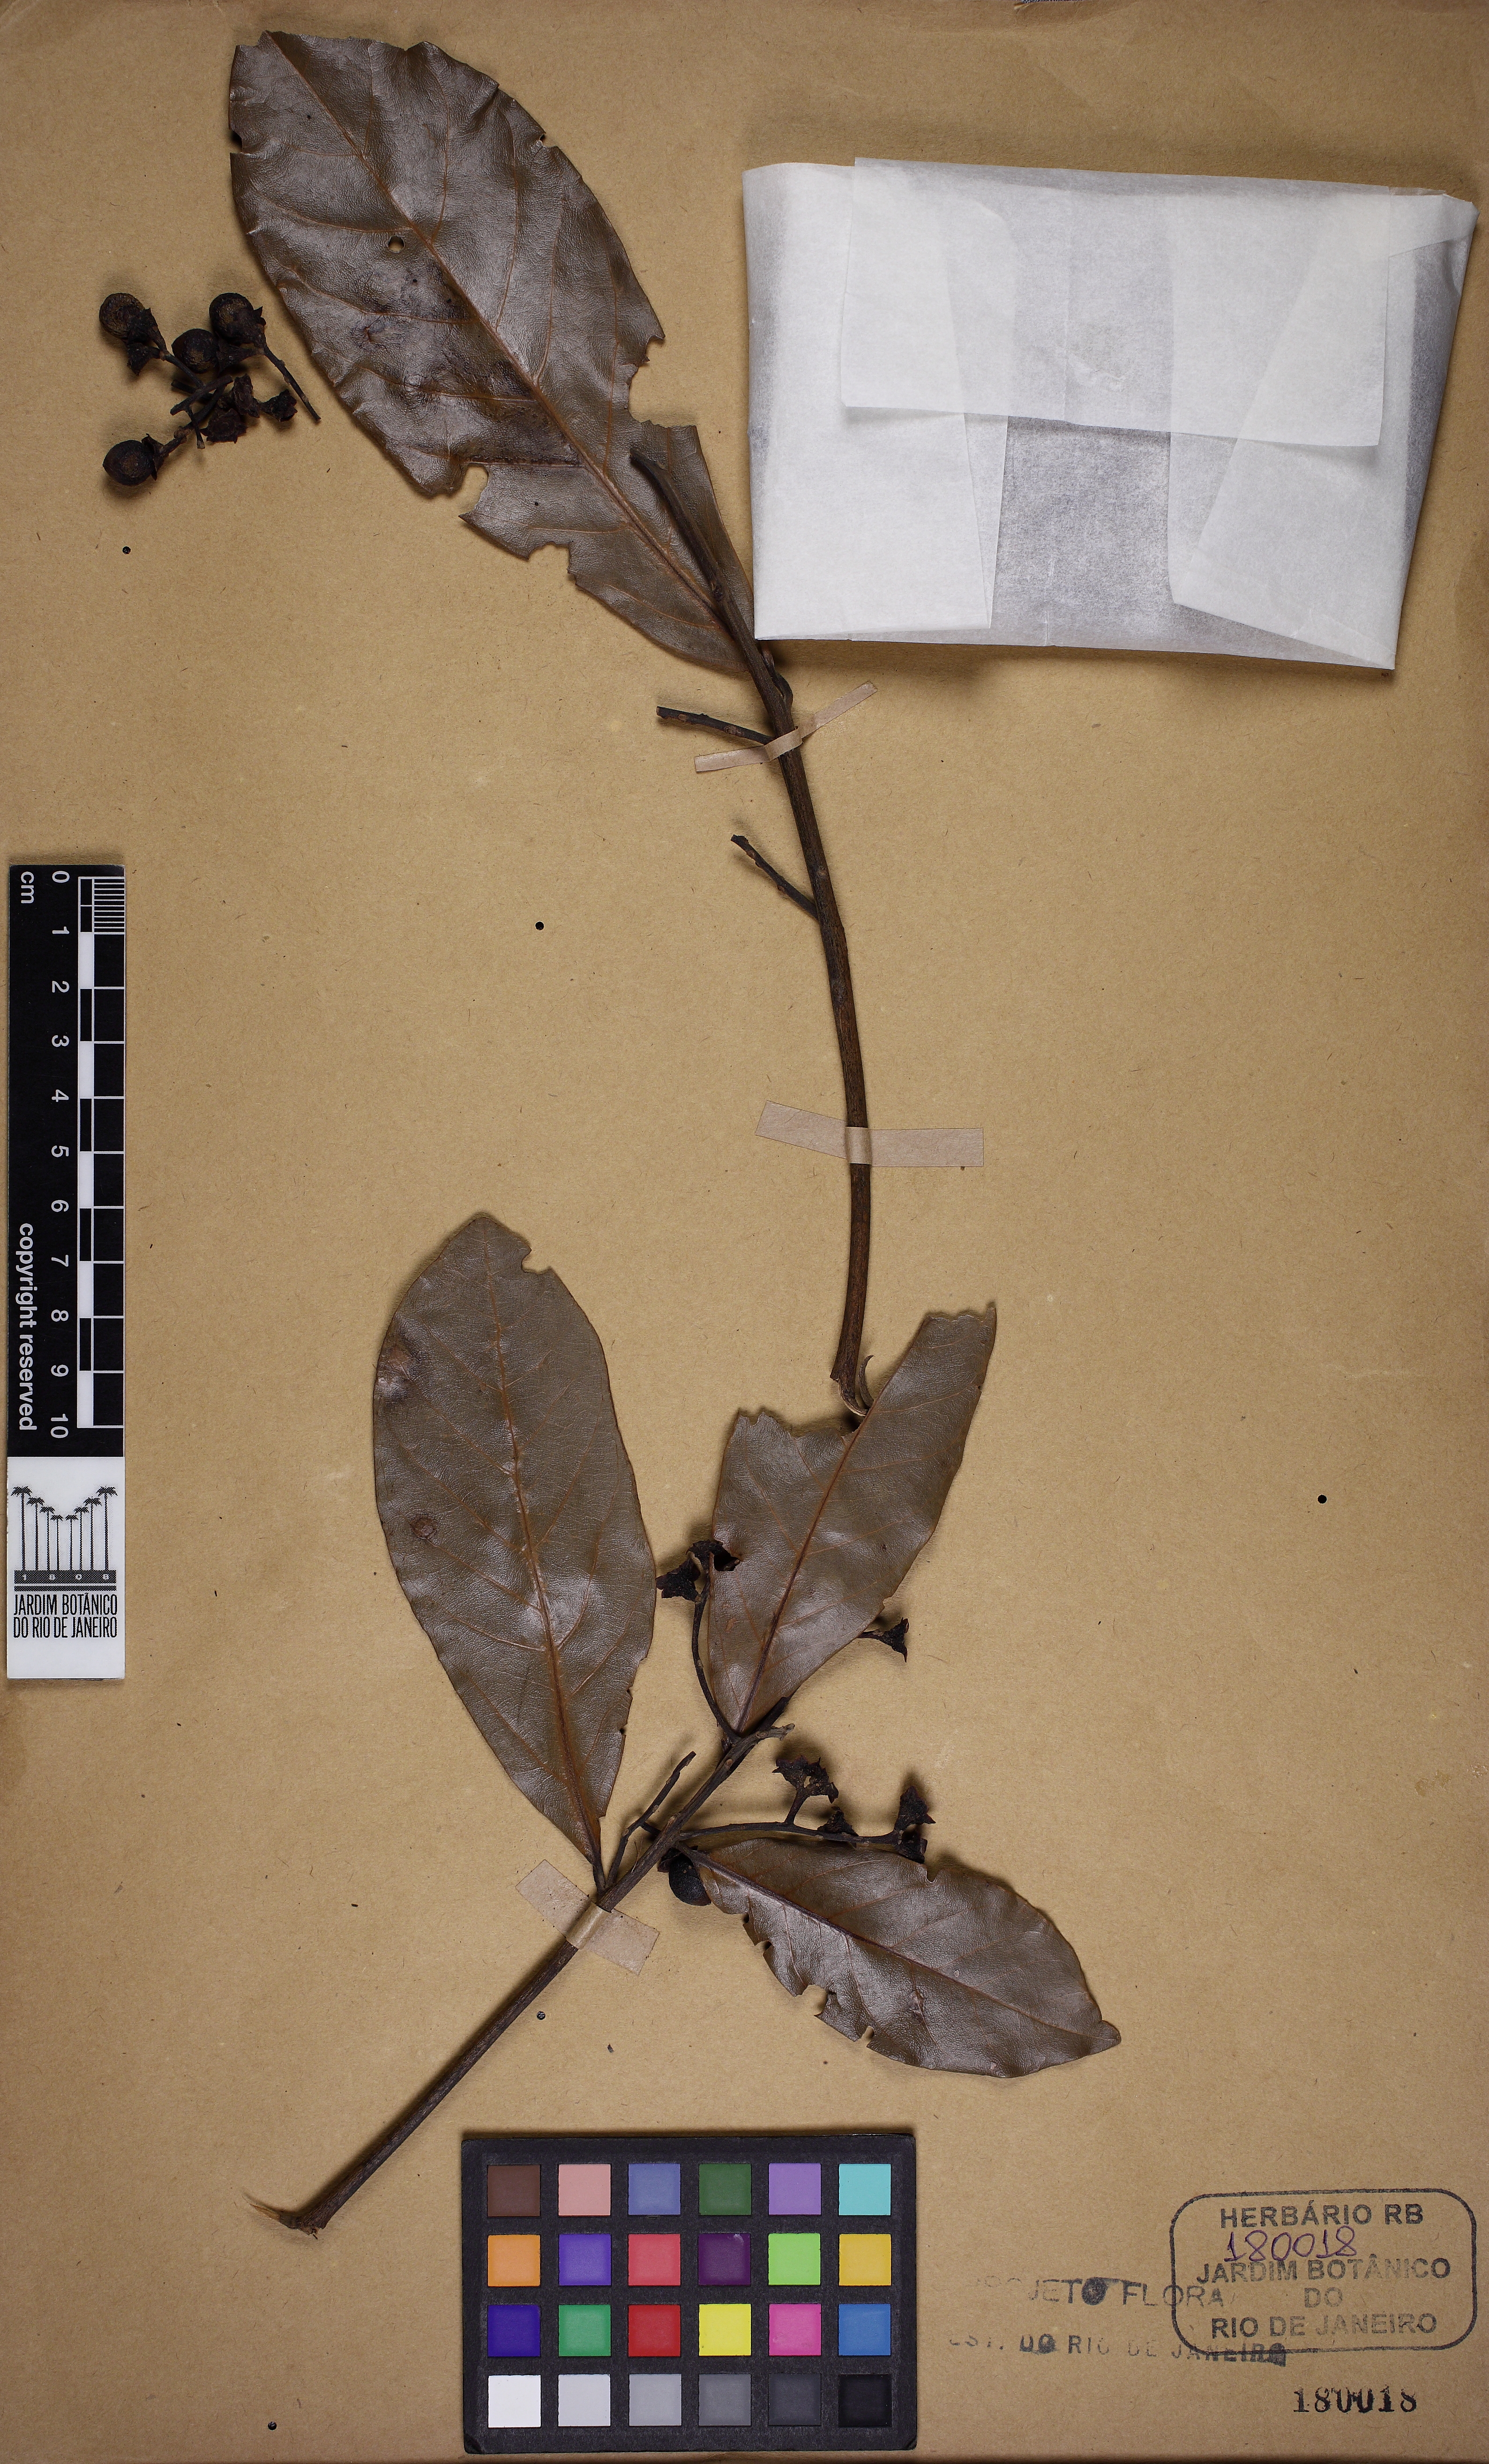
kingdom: Plantae
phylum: Tracheophyta
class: Magnoliopsida
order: Laurales
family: Lauraceae
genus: Ocotea
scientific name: Ocotea glaziovii
